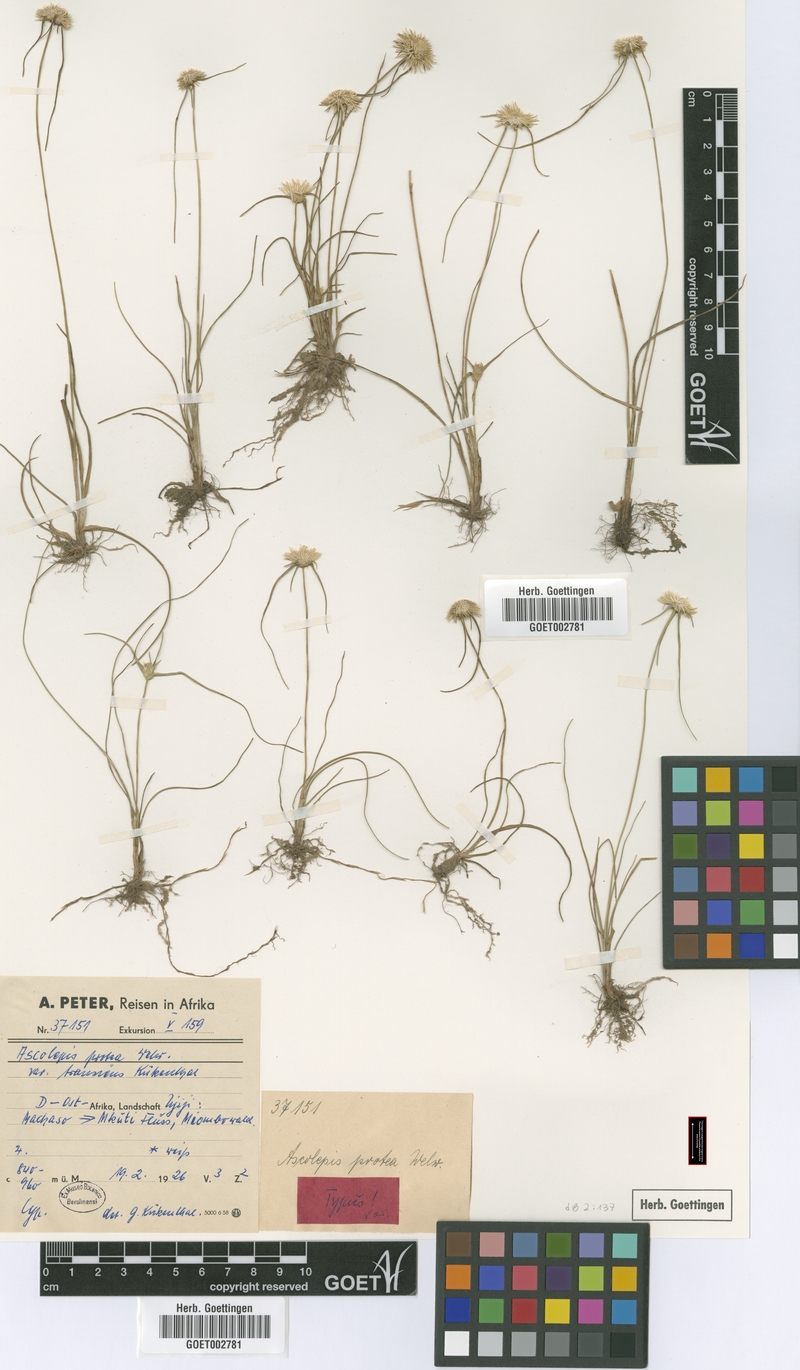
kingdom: Plantae
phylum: Tracheophyta
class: Liliopsida
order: Poales
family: Cyperaceae
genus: Cyperus
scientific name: Cyperus proteus
